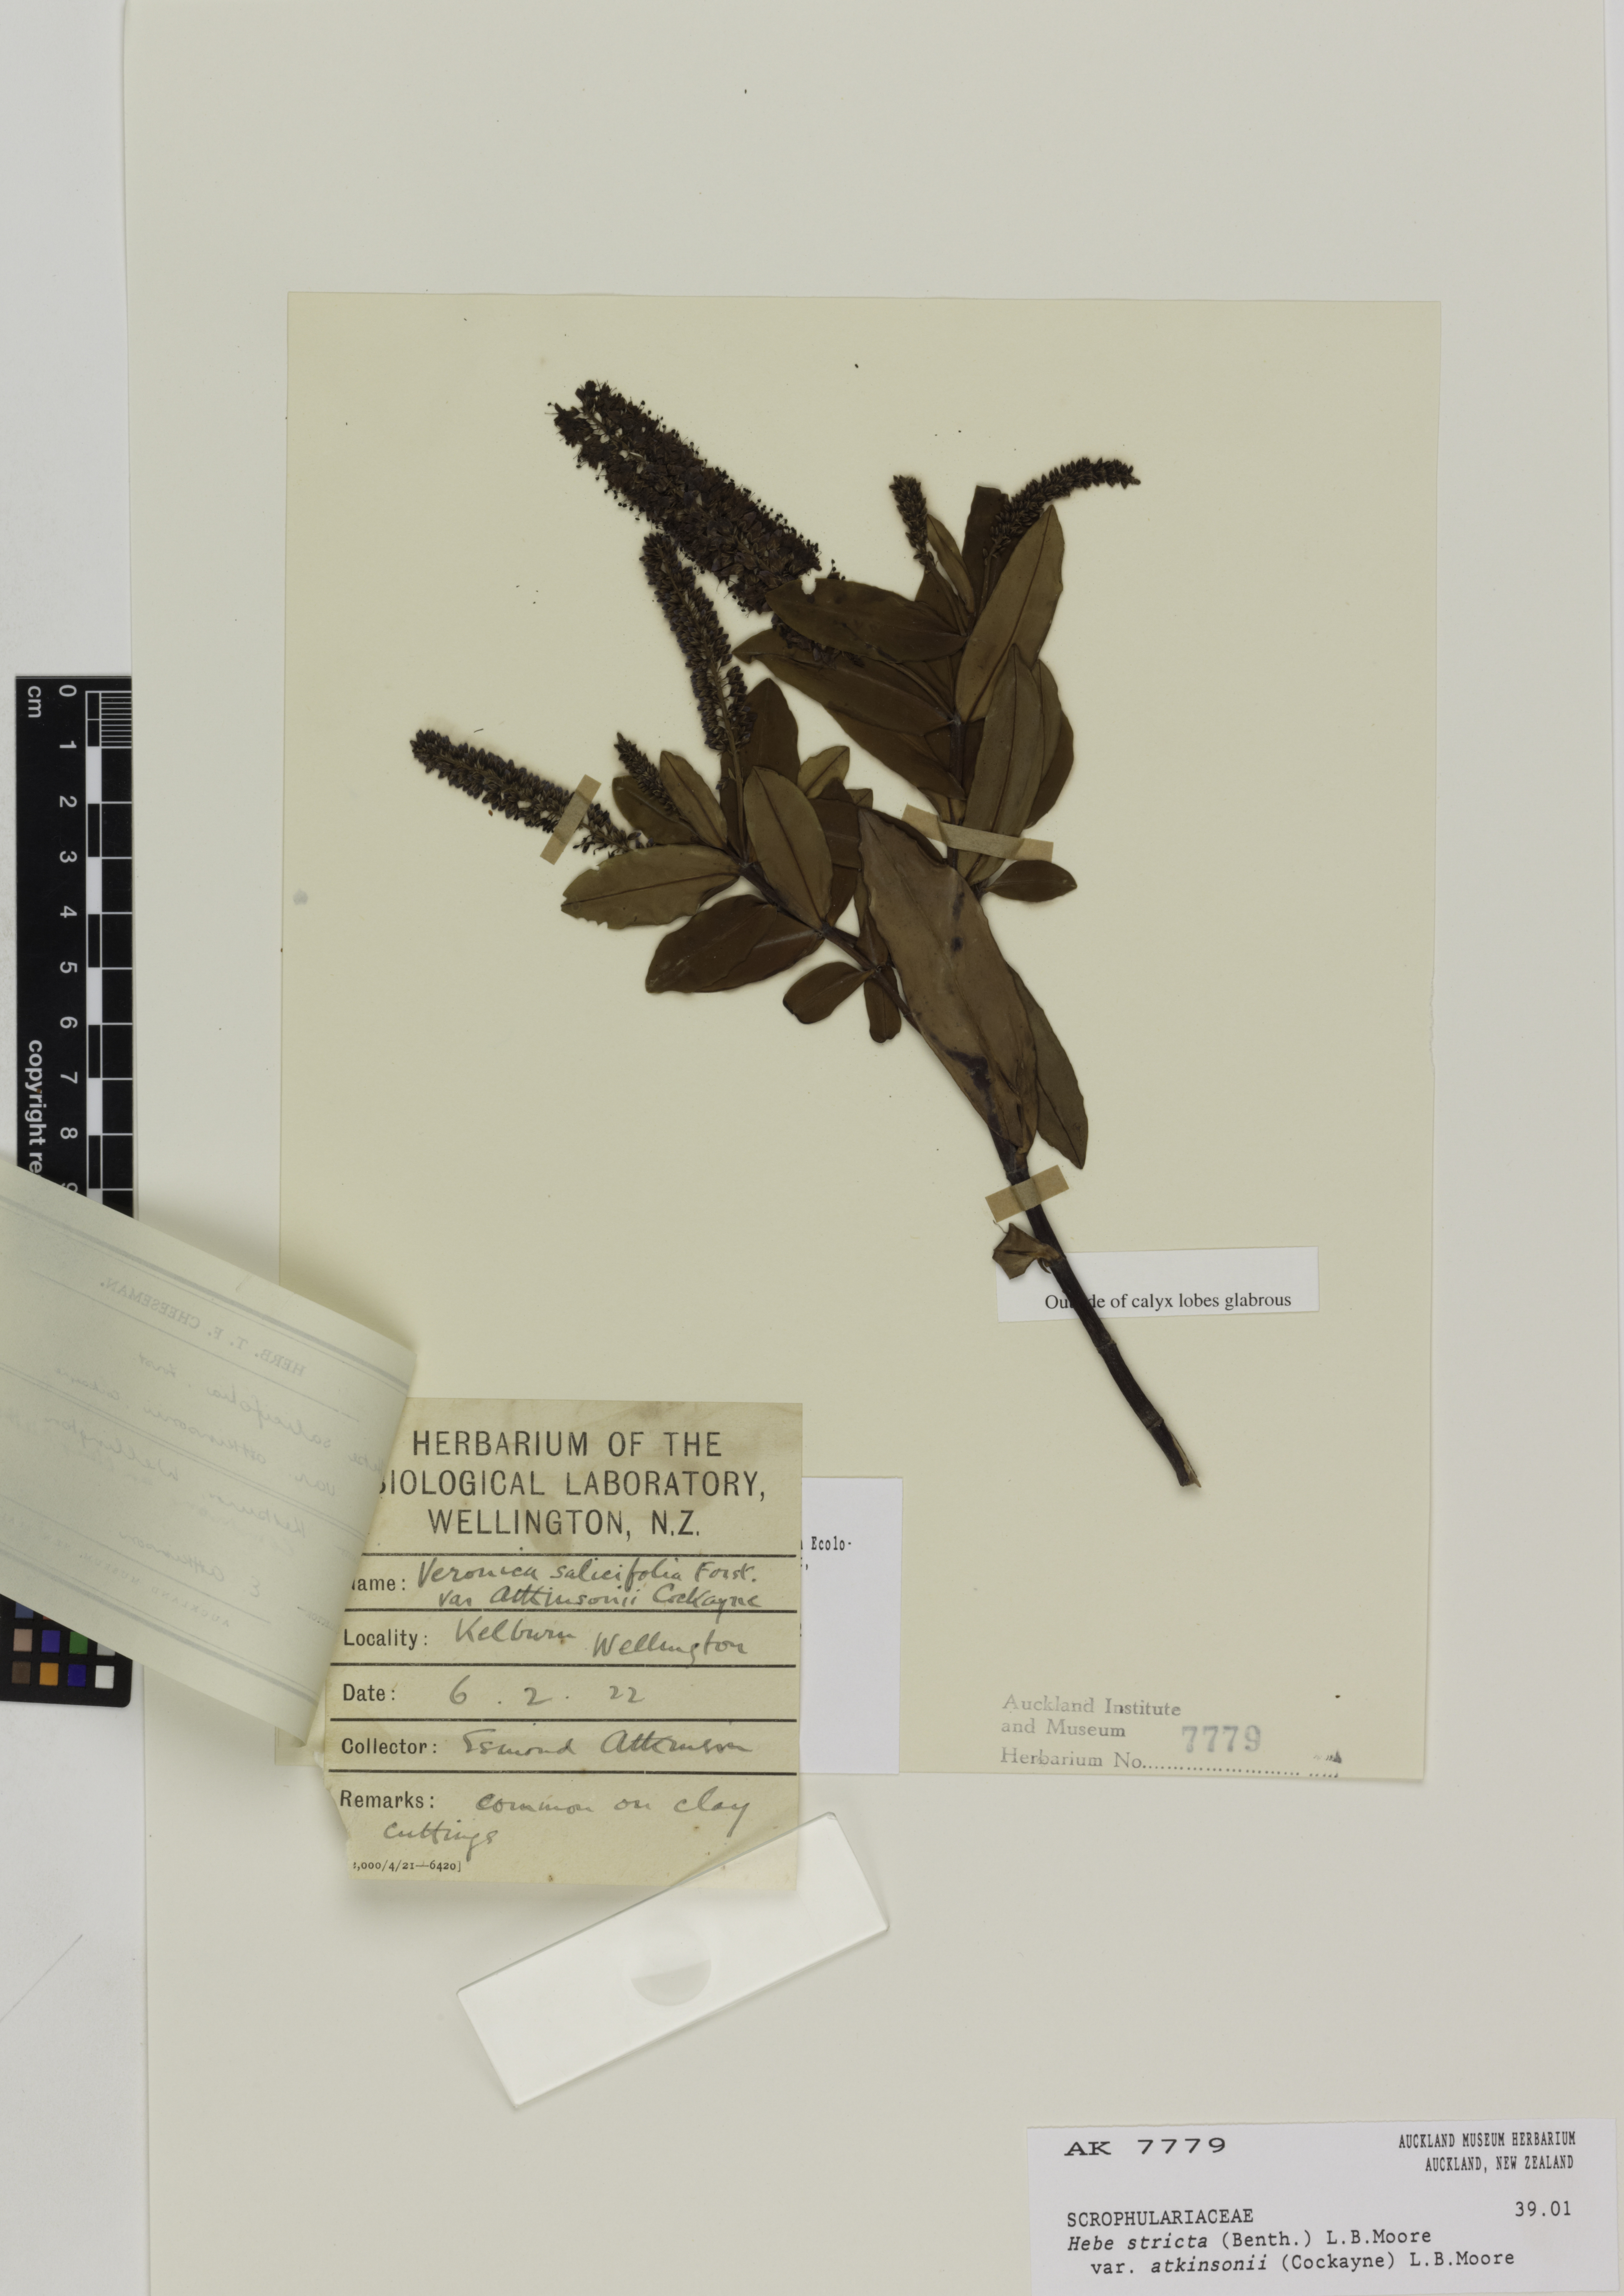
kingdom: Plantae
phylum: Tracheophyta
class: Magnoliopsida
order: Lamiales
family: Plantaginaceae
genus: Veronica
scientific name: Veronica stricta
